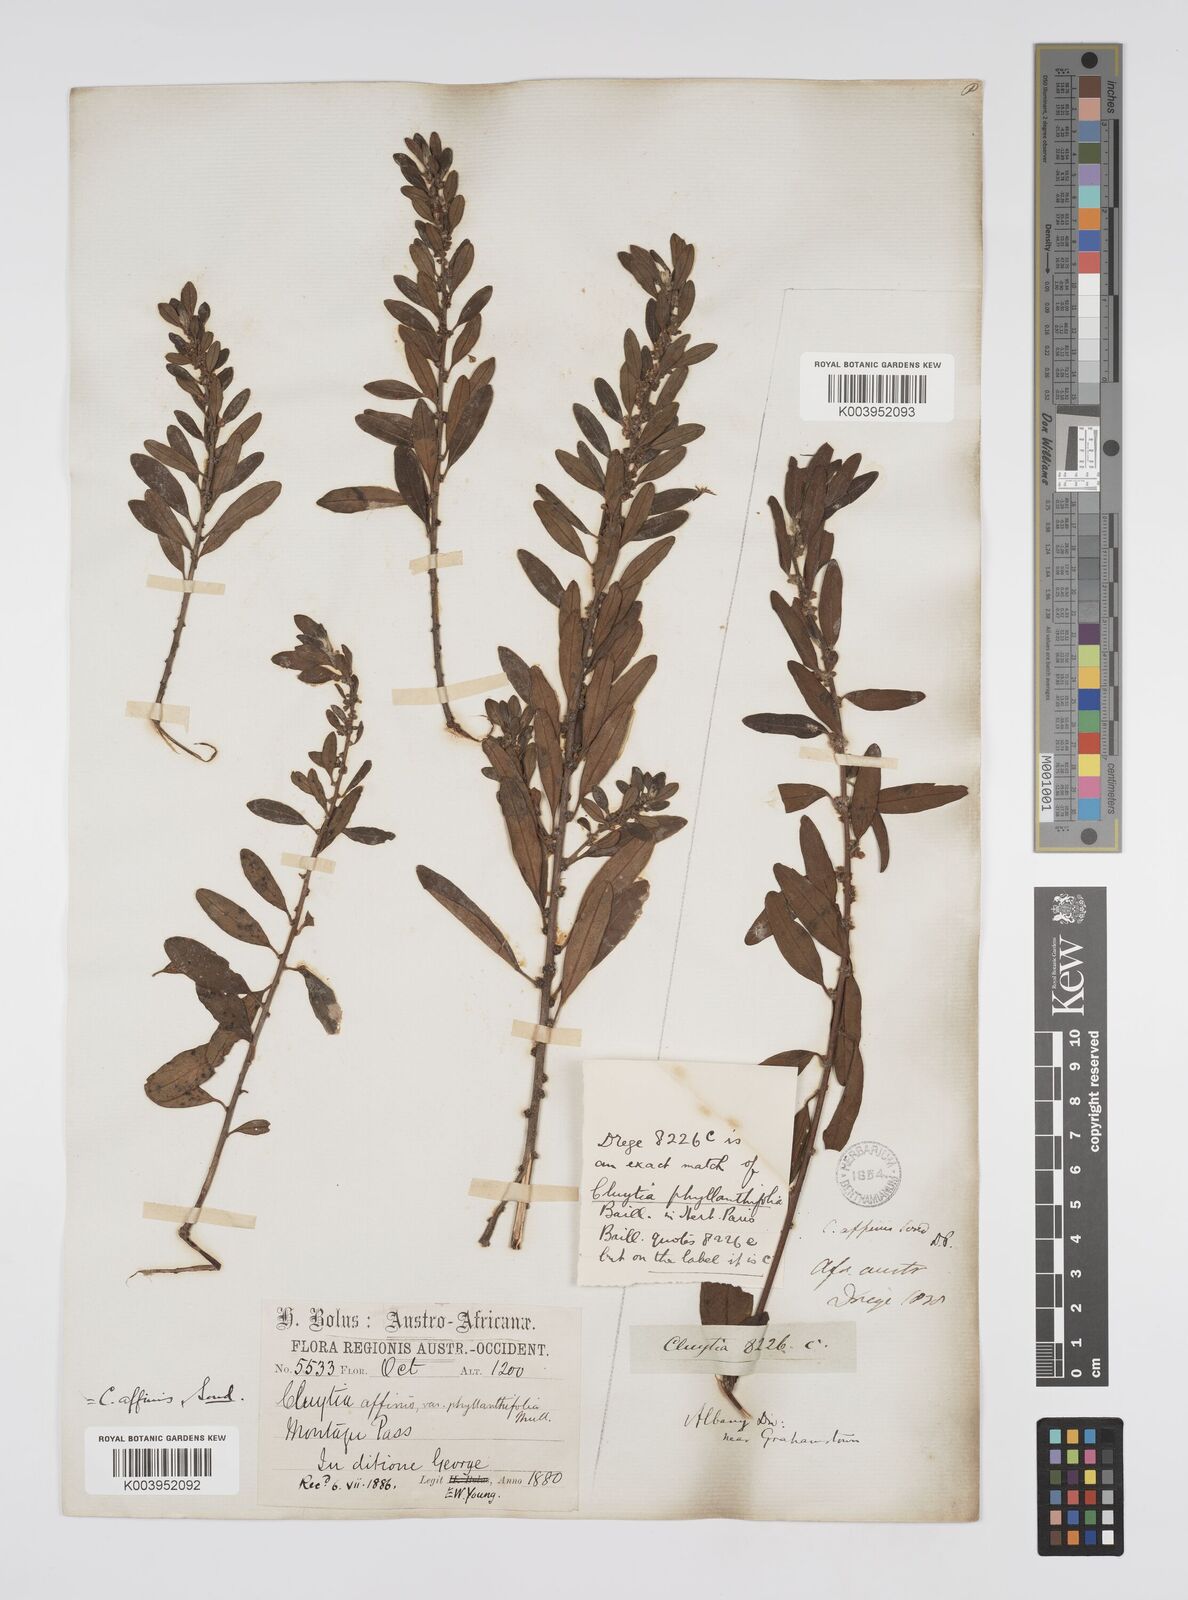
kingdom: Plantae
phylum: Tracheophyta
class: Magnoliopsida
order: Malpighiales
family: Peraceae
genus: Clutia
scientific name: Clutia affinis
